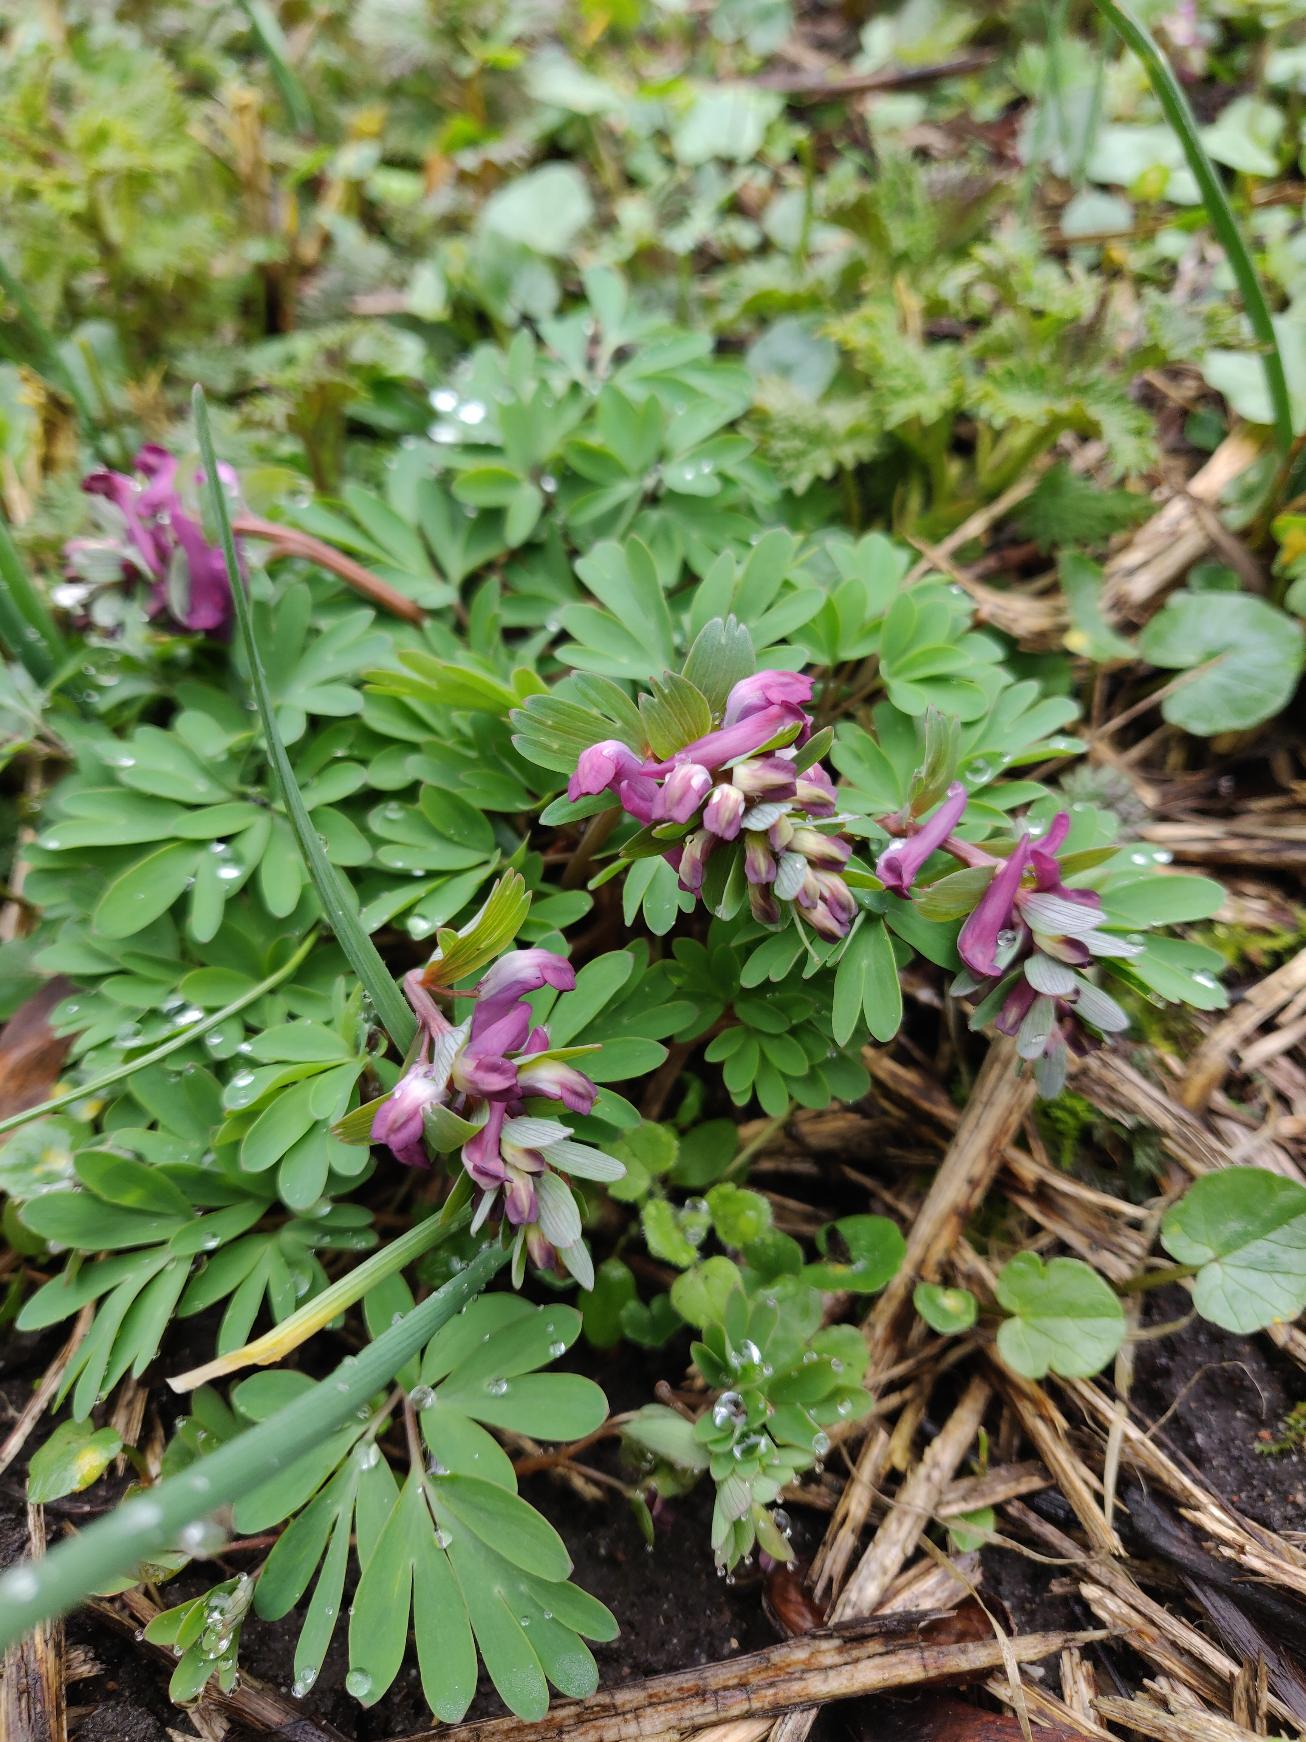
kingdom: Plantae
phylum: Tracheophyta
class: Magnoliopsida
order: Ranunculales
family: Papaveraceae
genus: Corydalis
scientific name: Corydalis
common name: Hulrodet × langstilket lærkespore
